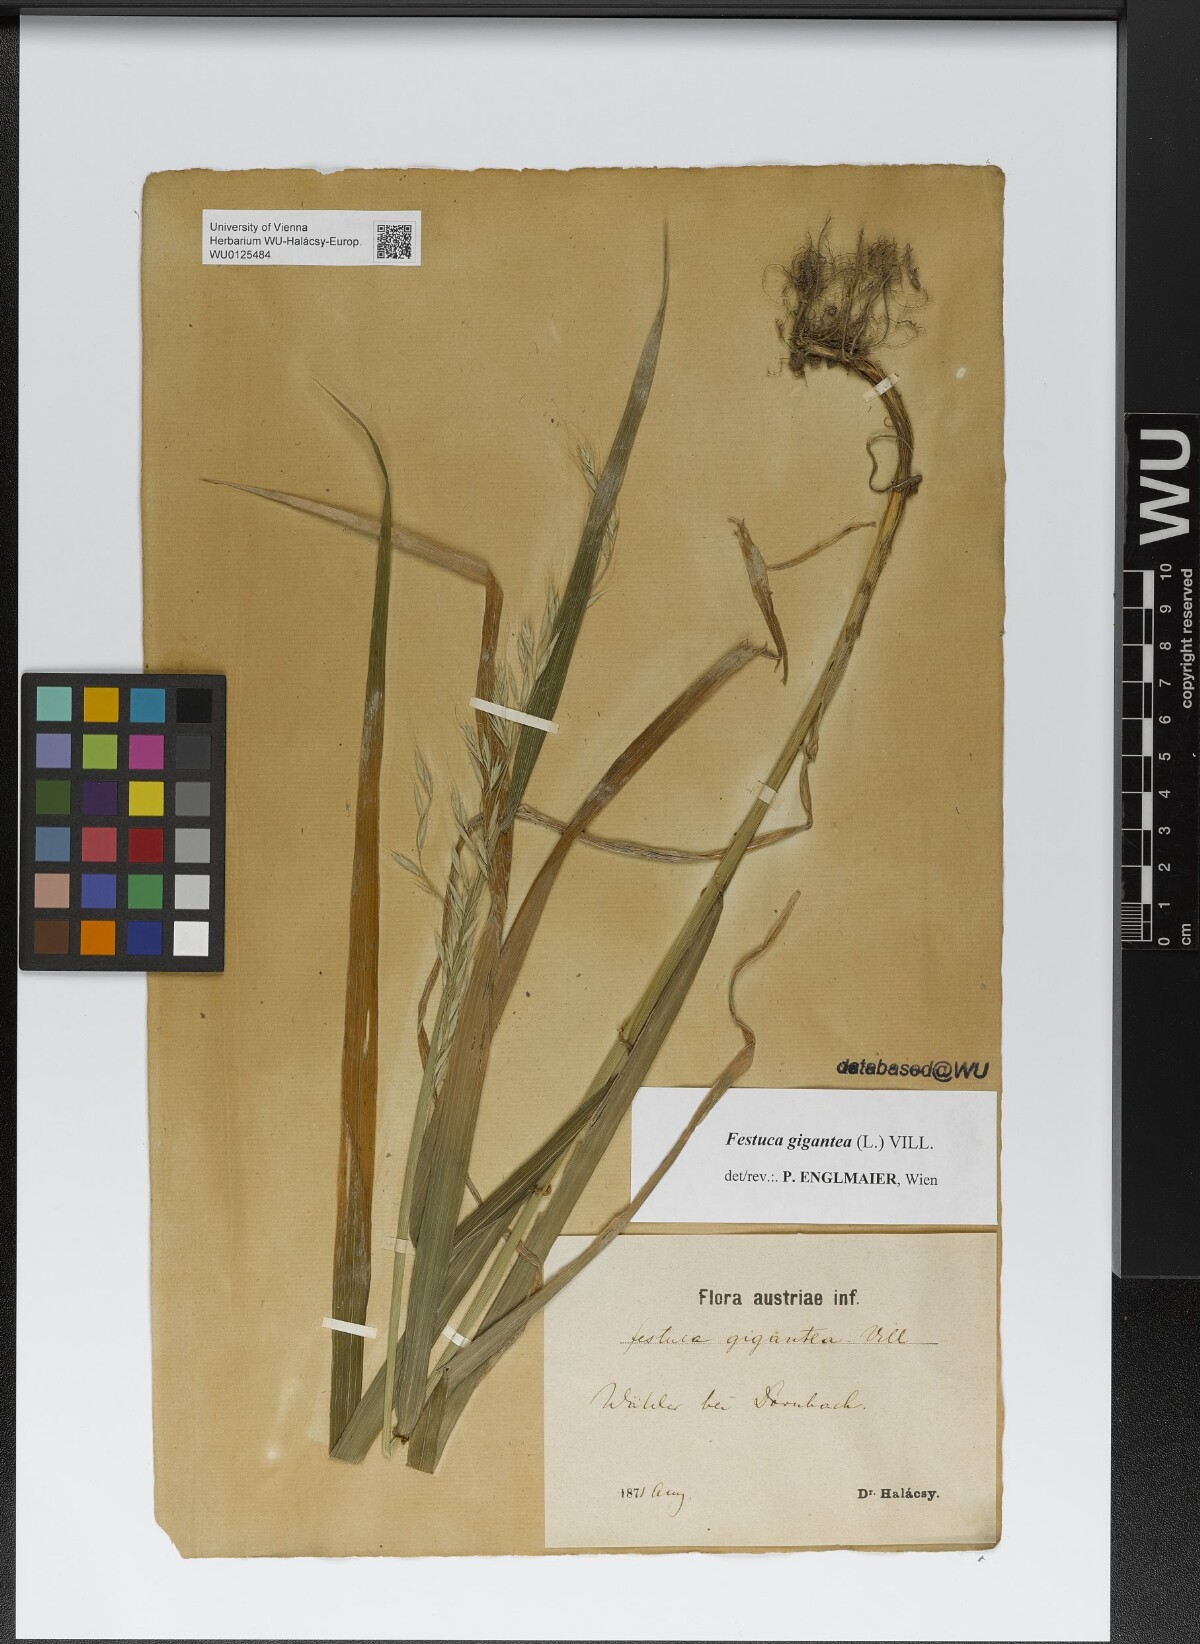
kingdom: Plantae
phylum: Tracheophyta
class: Liliopsida
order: Poales
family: Poaceae
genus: Lolium
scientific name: Lolium giganteum
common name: Giant fescue
